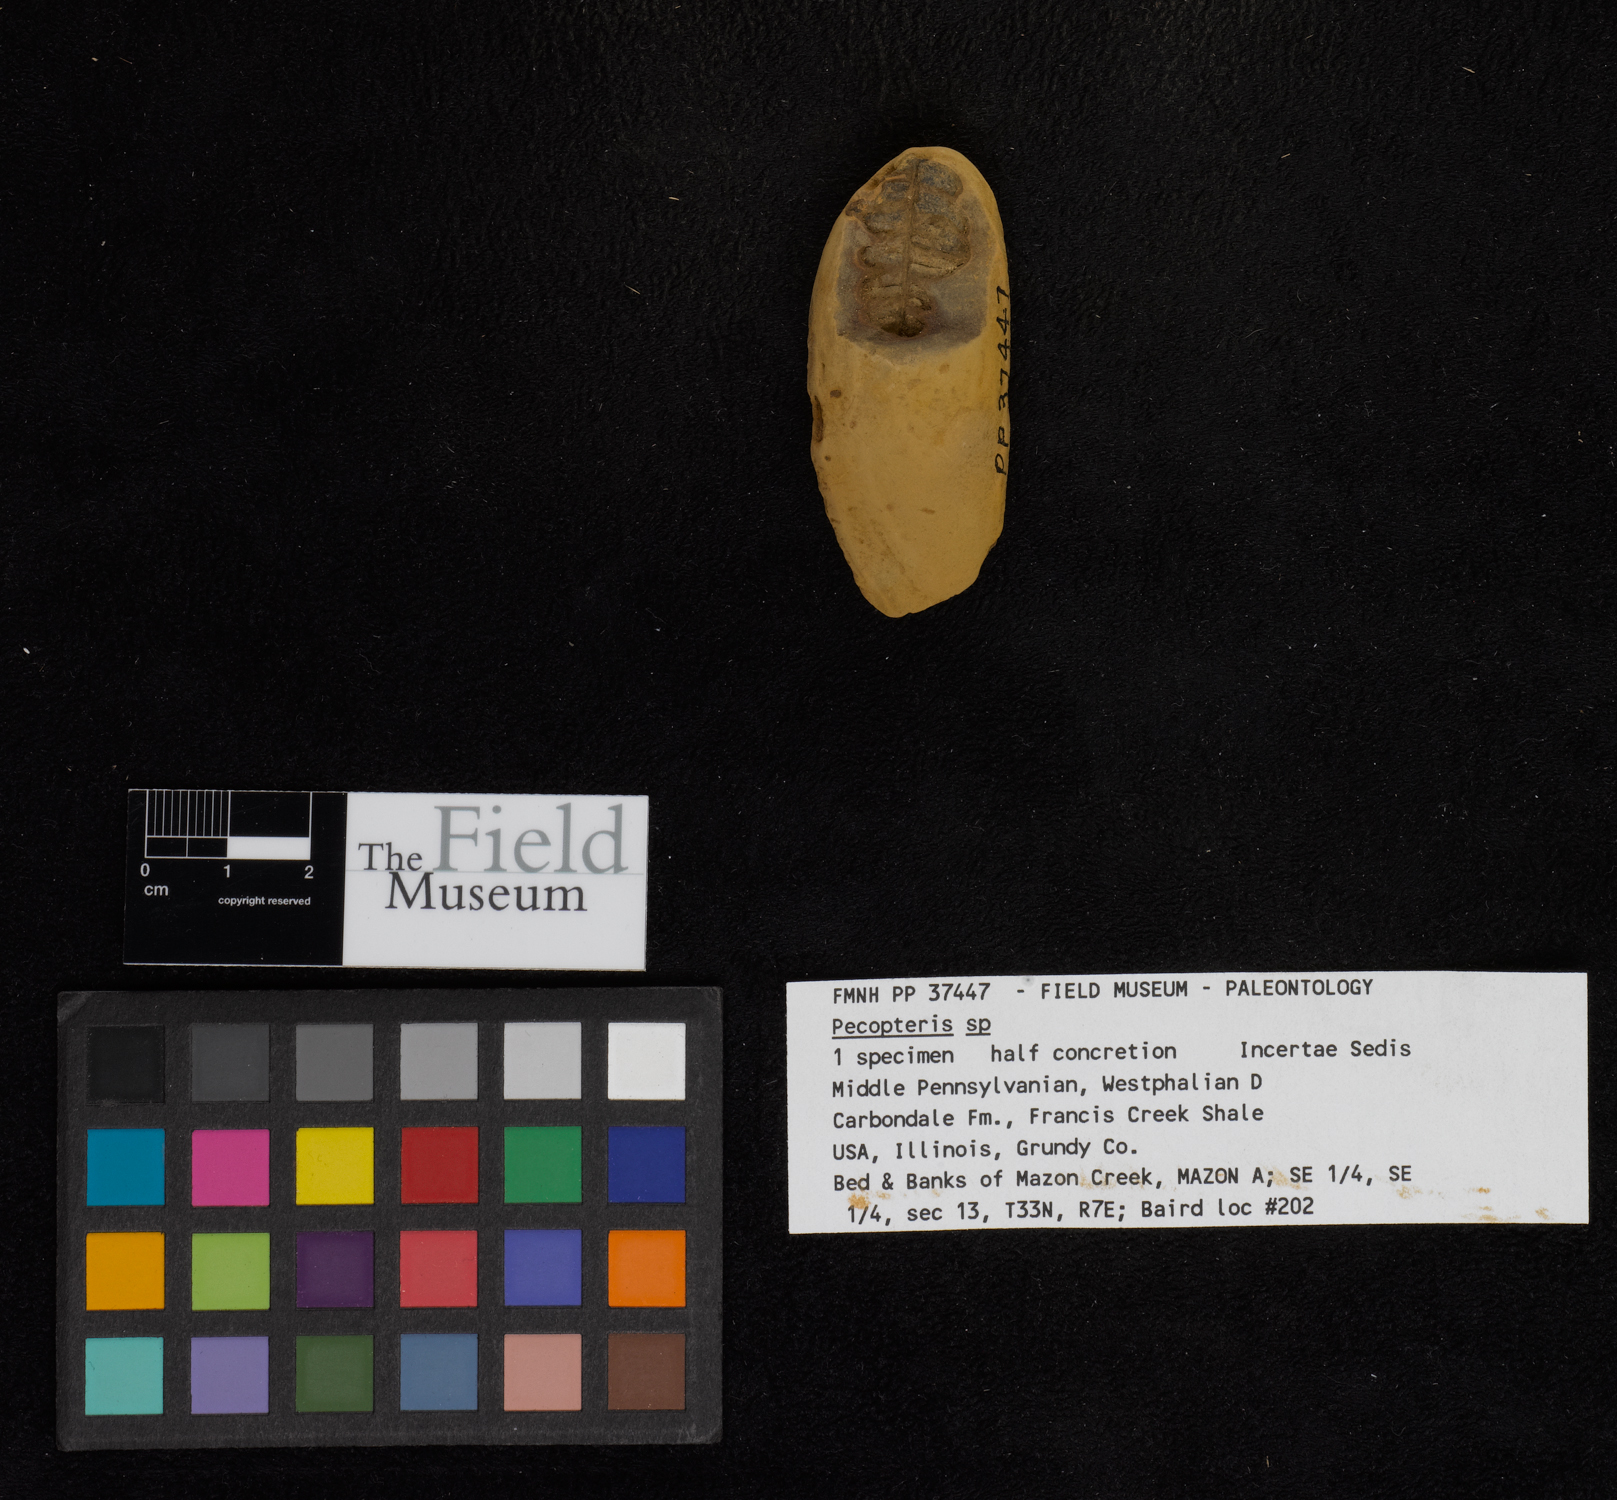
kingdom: Plantae
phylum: Tracheophyta
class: Polypodiopsida
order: Marattiales
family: Asterothecaceae
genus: Pecopteris
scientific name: Pecopteris
